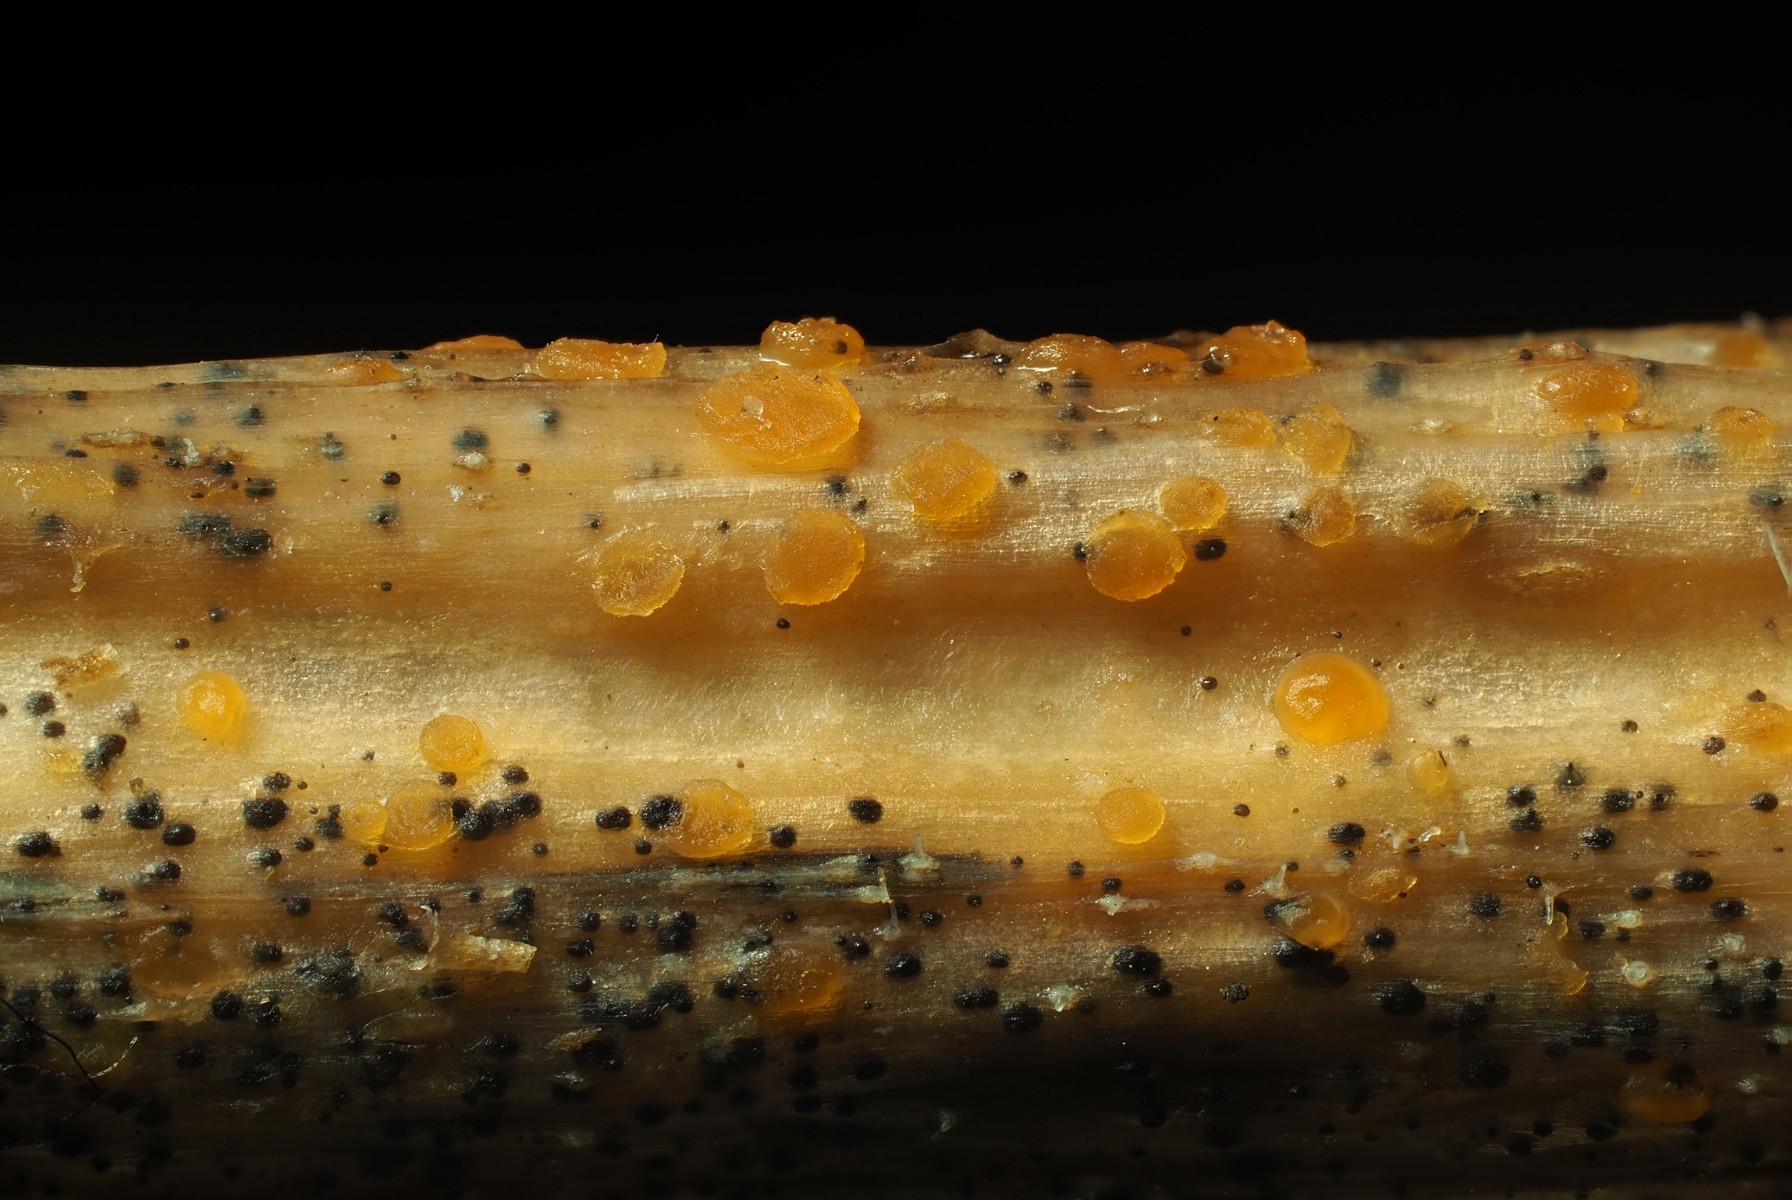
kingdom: Fungi
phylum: Ascomycota
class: Leotiomycetes
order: Helotiales
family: Calloriaceae
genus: Calloria
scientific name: Calloria urticae
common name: nælde-orangeskive
